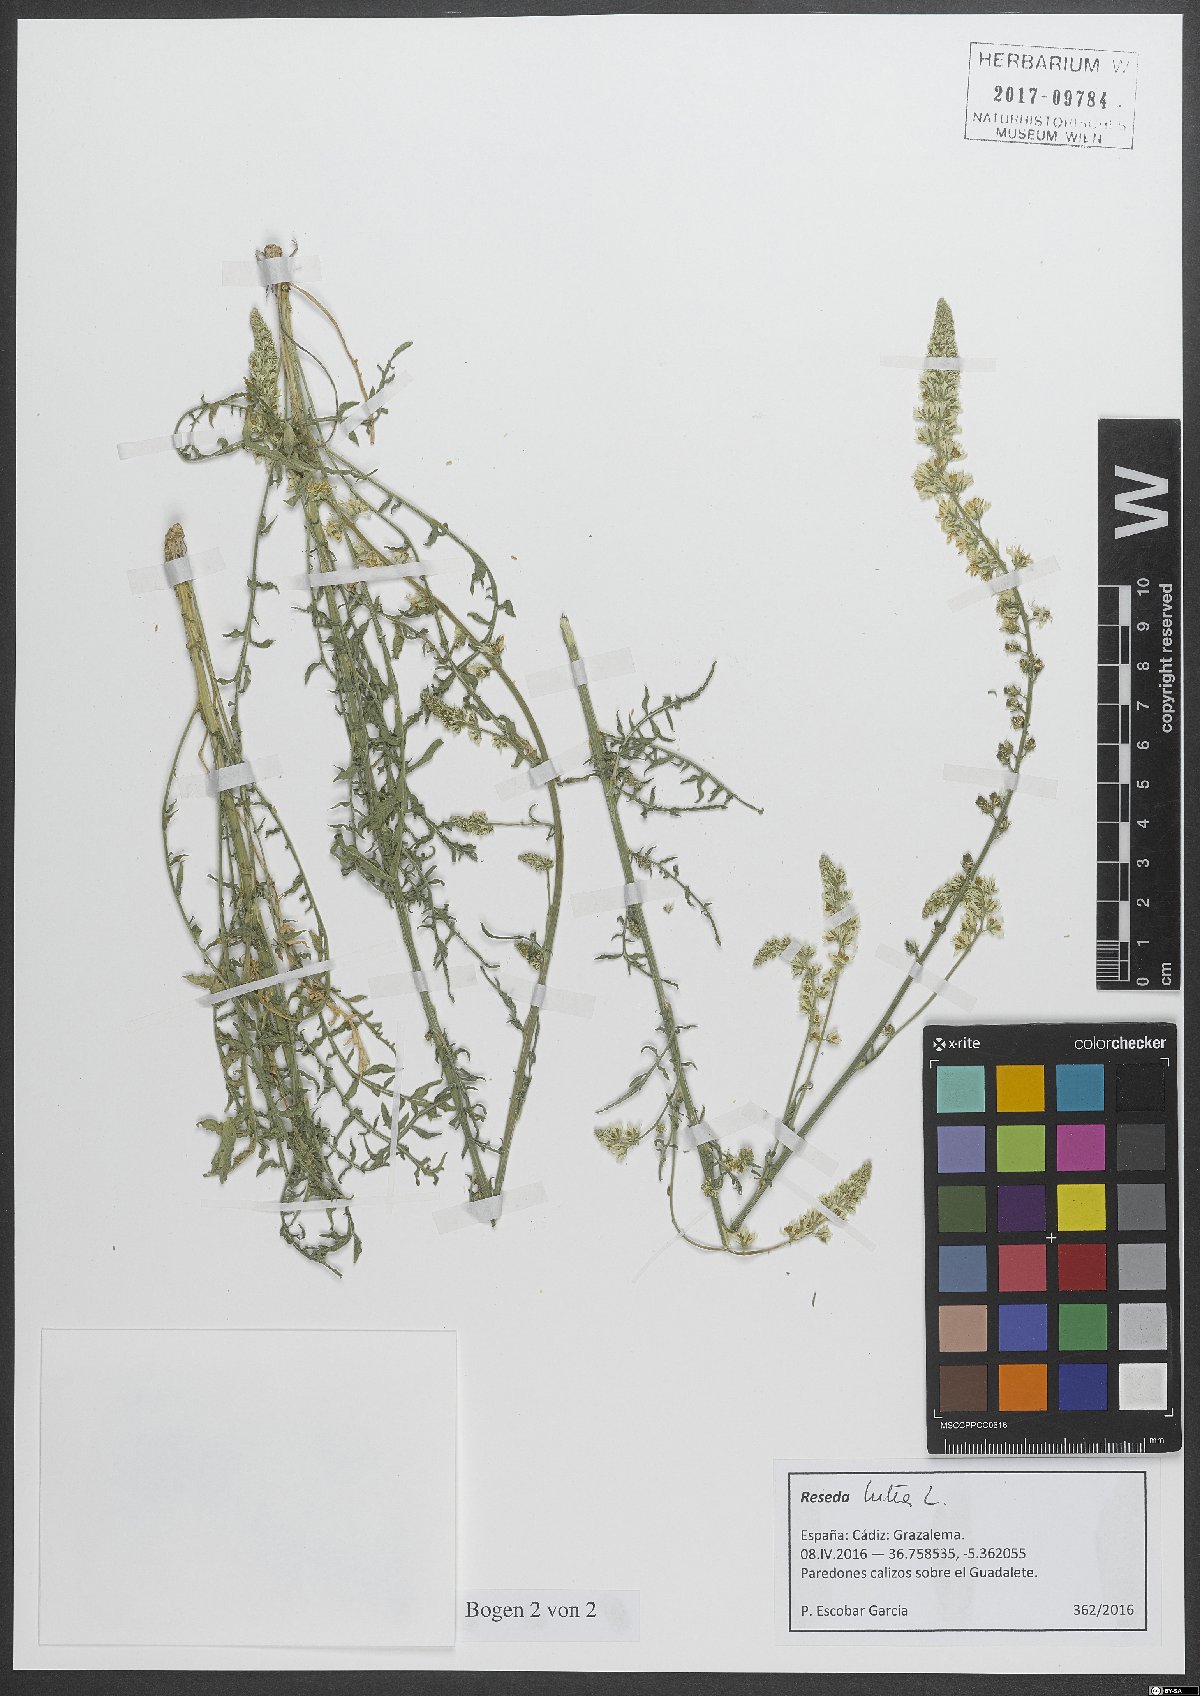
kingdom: Plantae
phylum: Tracheophyta
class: Magnoliopsida
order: Brassicales
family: Resedaceae
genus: Reseda
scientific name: Reseda lutea
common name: Wild mignonette
